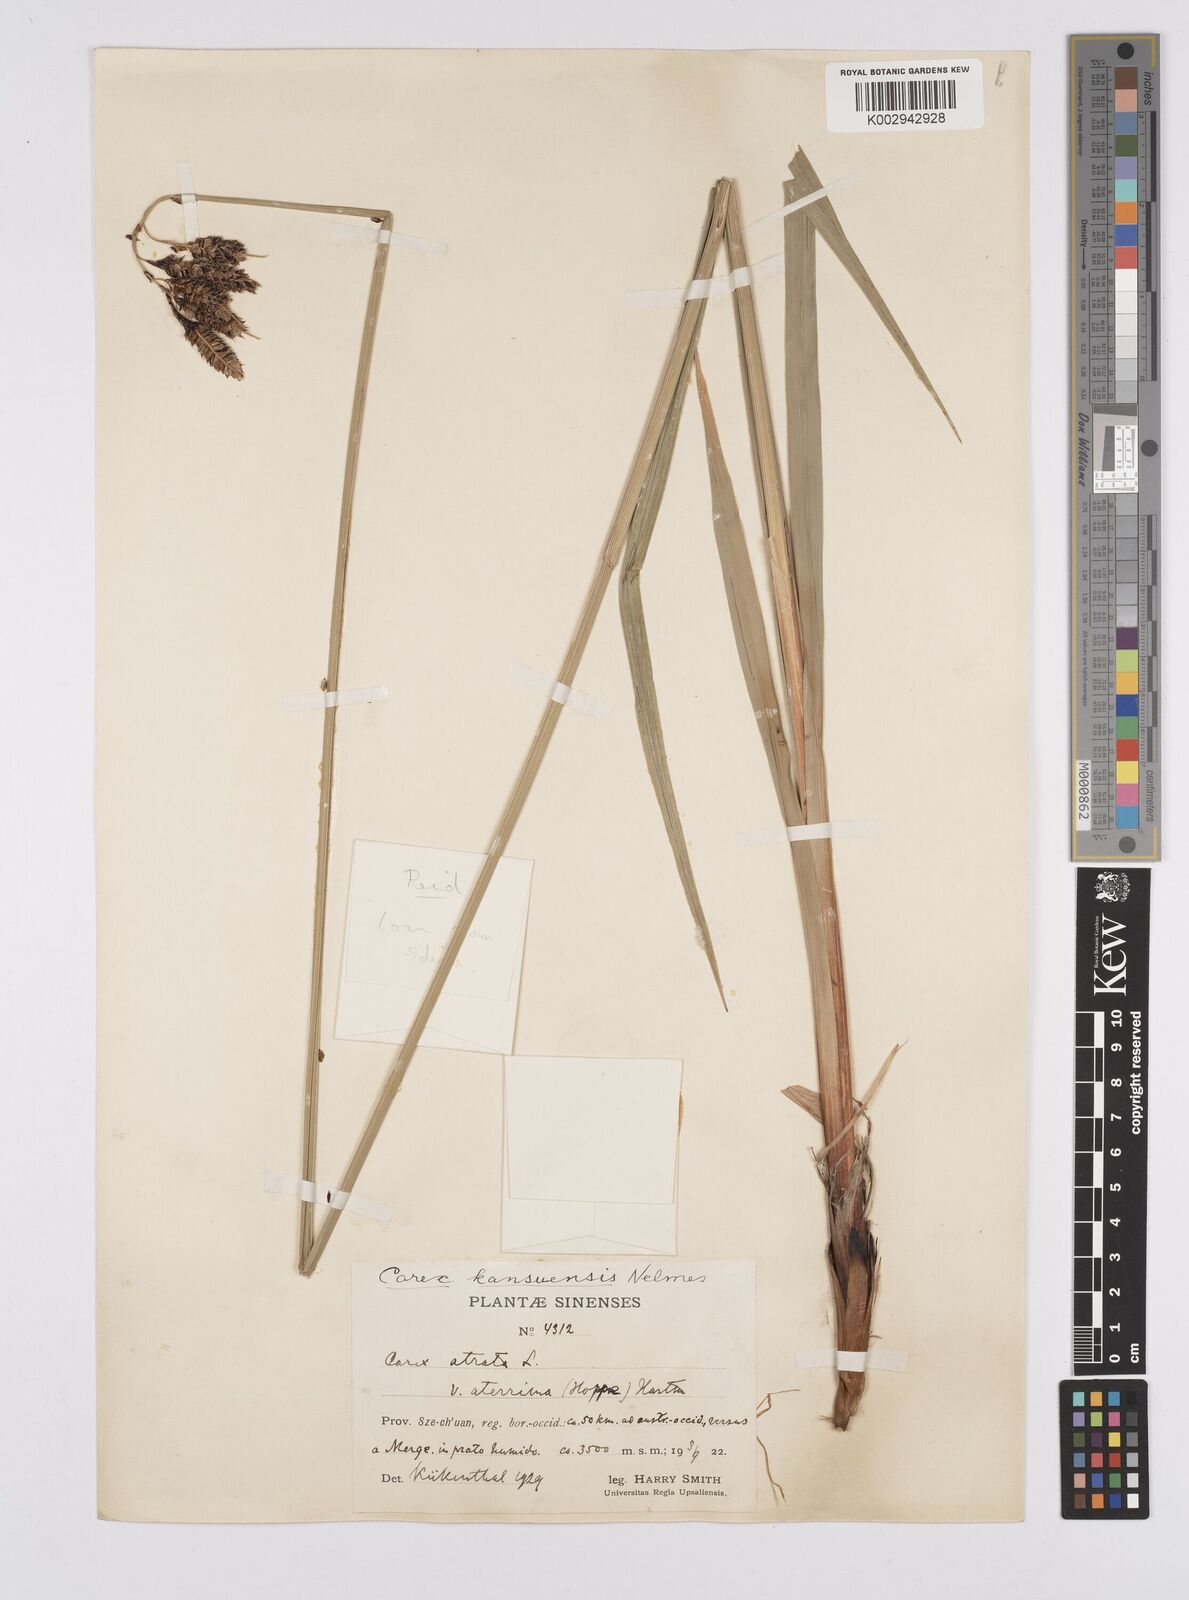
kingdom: Plantae
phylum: Tracheophyta
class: Liliopsida
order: Poales
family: Cyperaceae
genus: Carex
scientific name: Carex kansuensis
